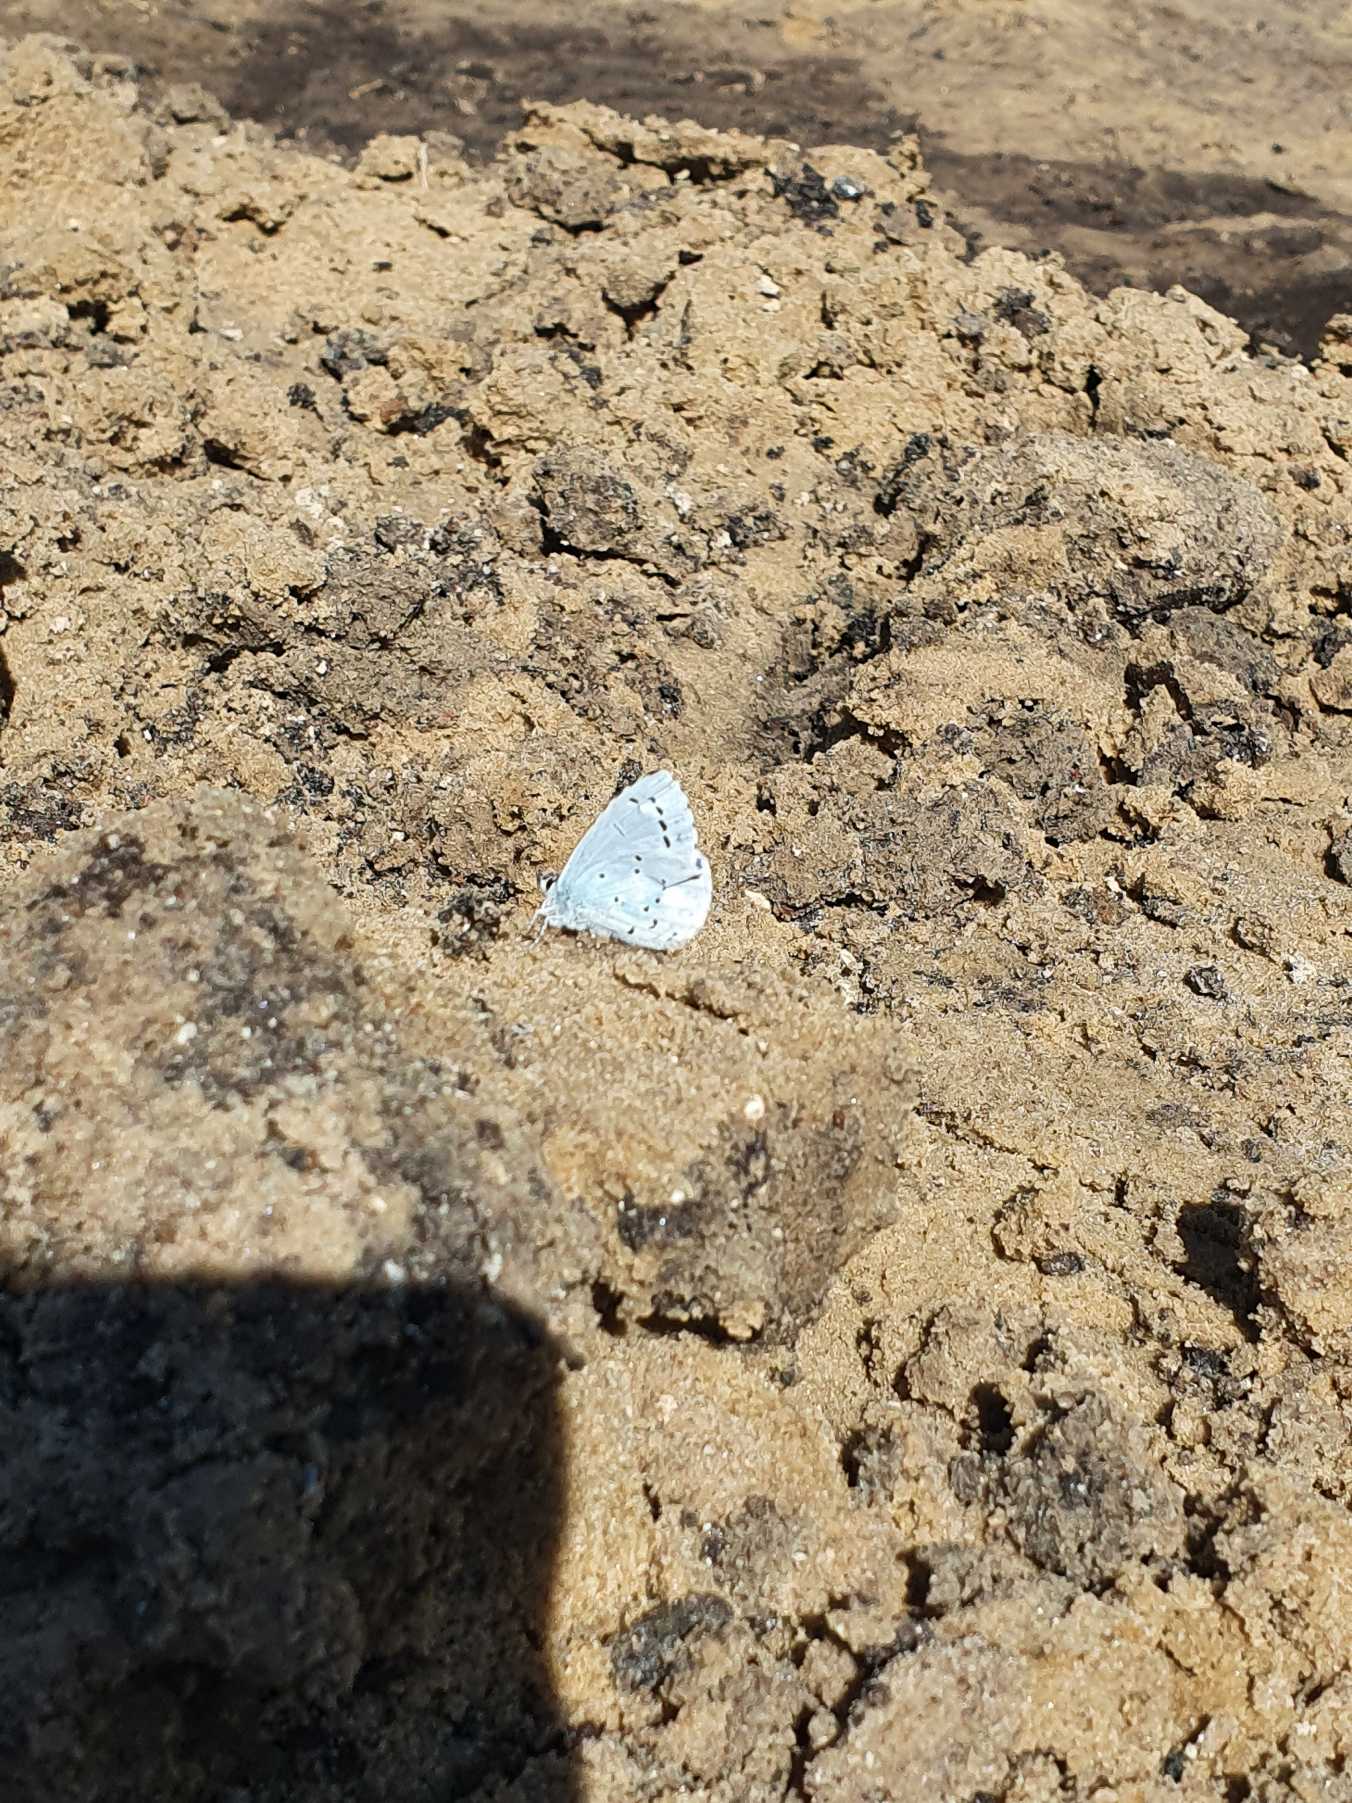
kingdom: Animalia
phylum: Arthropoda
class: Insecta
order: Lepidoptera
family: Lycaenidae
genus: Celastrina
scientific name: Celastrina argiolus
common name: Skovblåfugl
